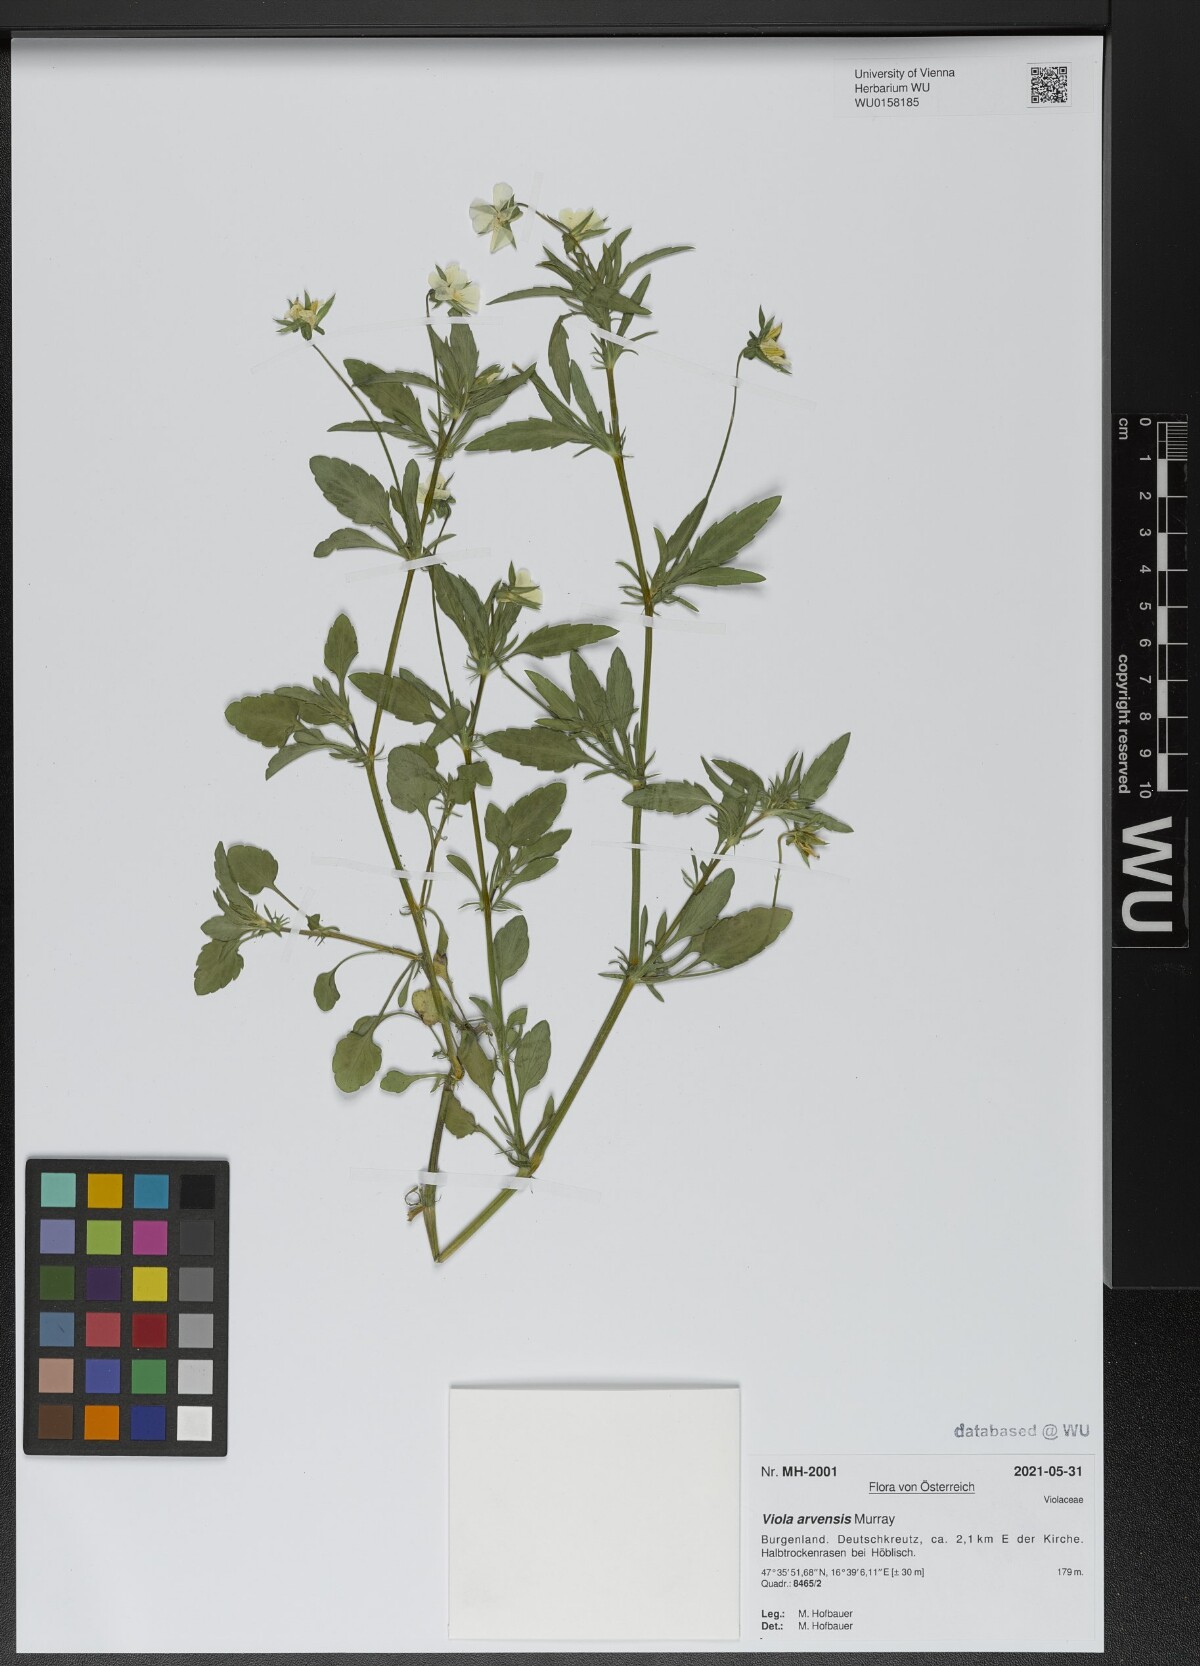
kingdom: Plantae
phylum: Tracheophyta
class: Magnoliopsida
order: Malpighiales
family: Violaceae
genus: Viola
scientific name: Viola arvensis
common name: Field pansy
